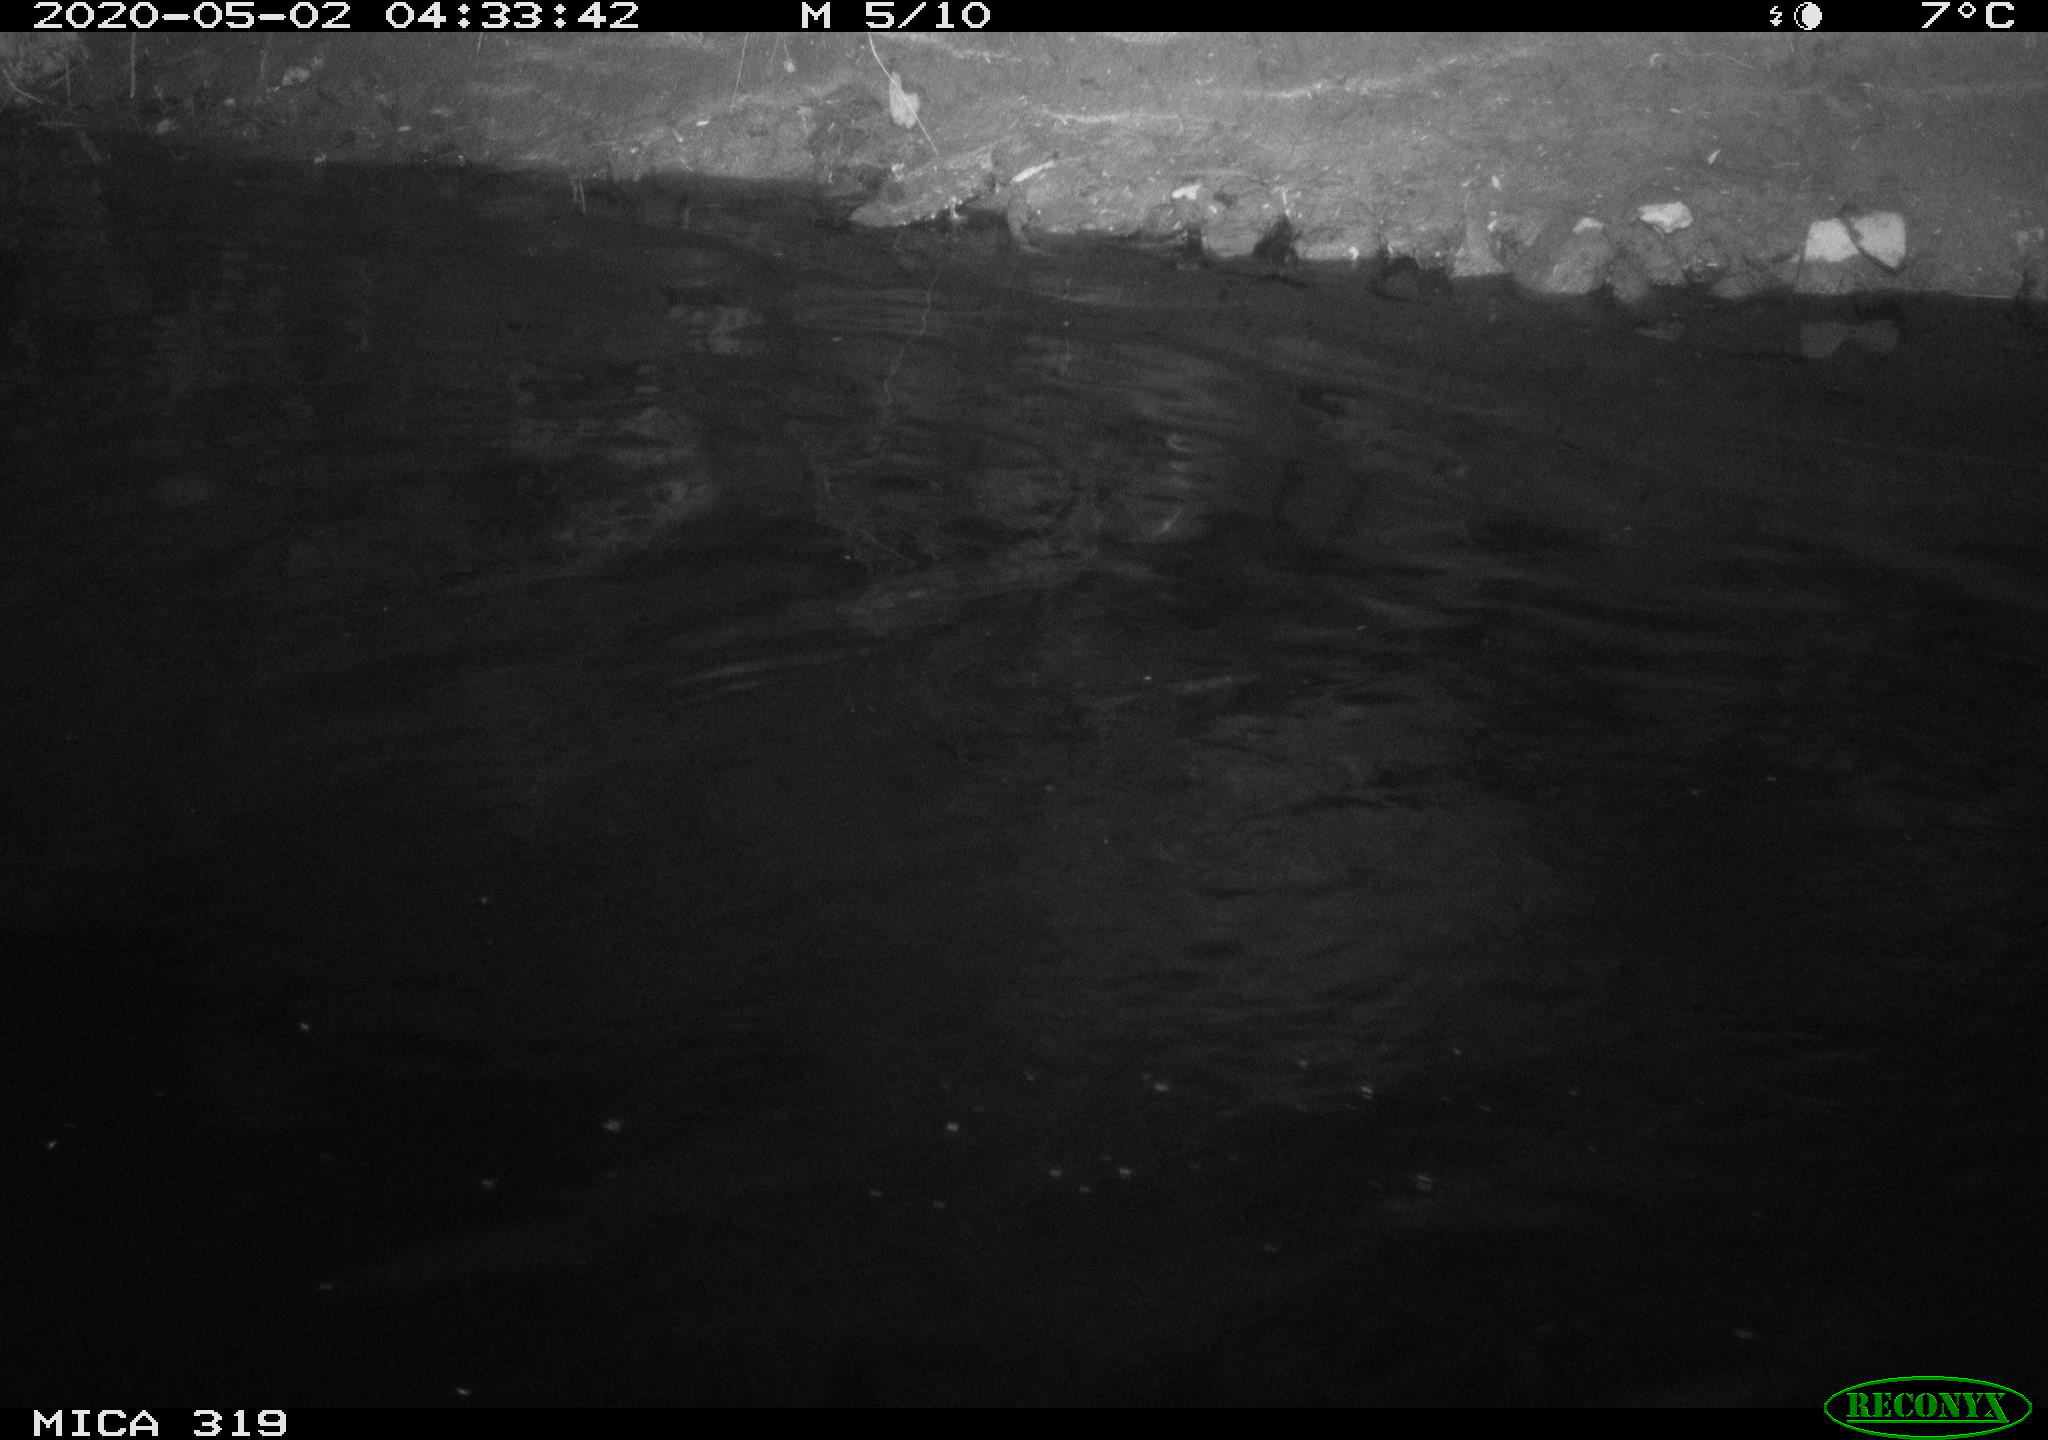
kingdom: Animalia
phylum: Chordata
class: Aves
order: Anseriformes
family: Anatidae
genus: Anas
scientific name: Anas platyrhynchos
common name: Mallard
